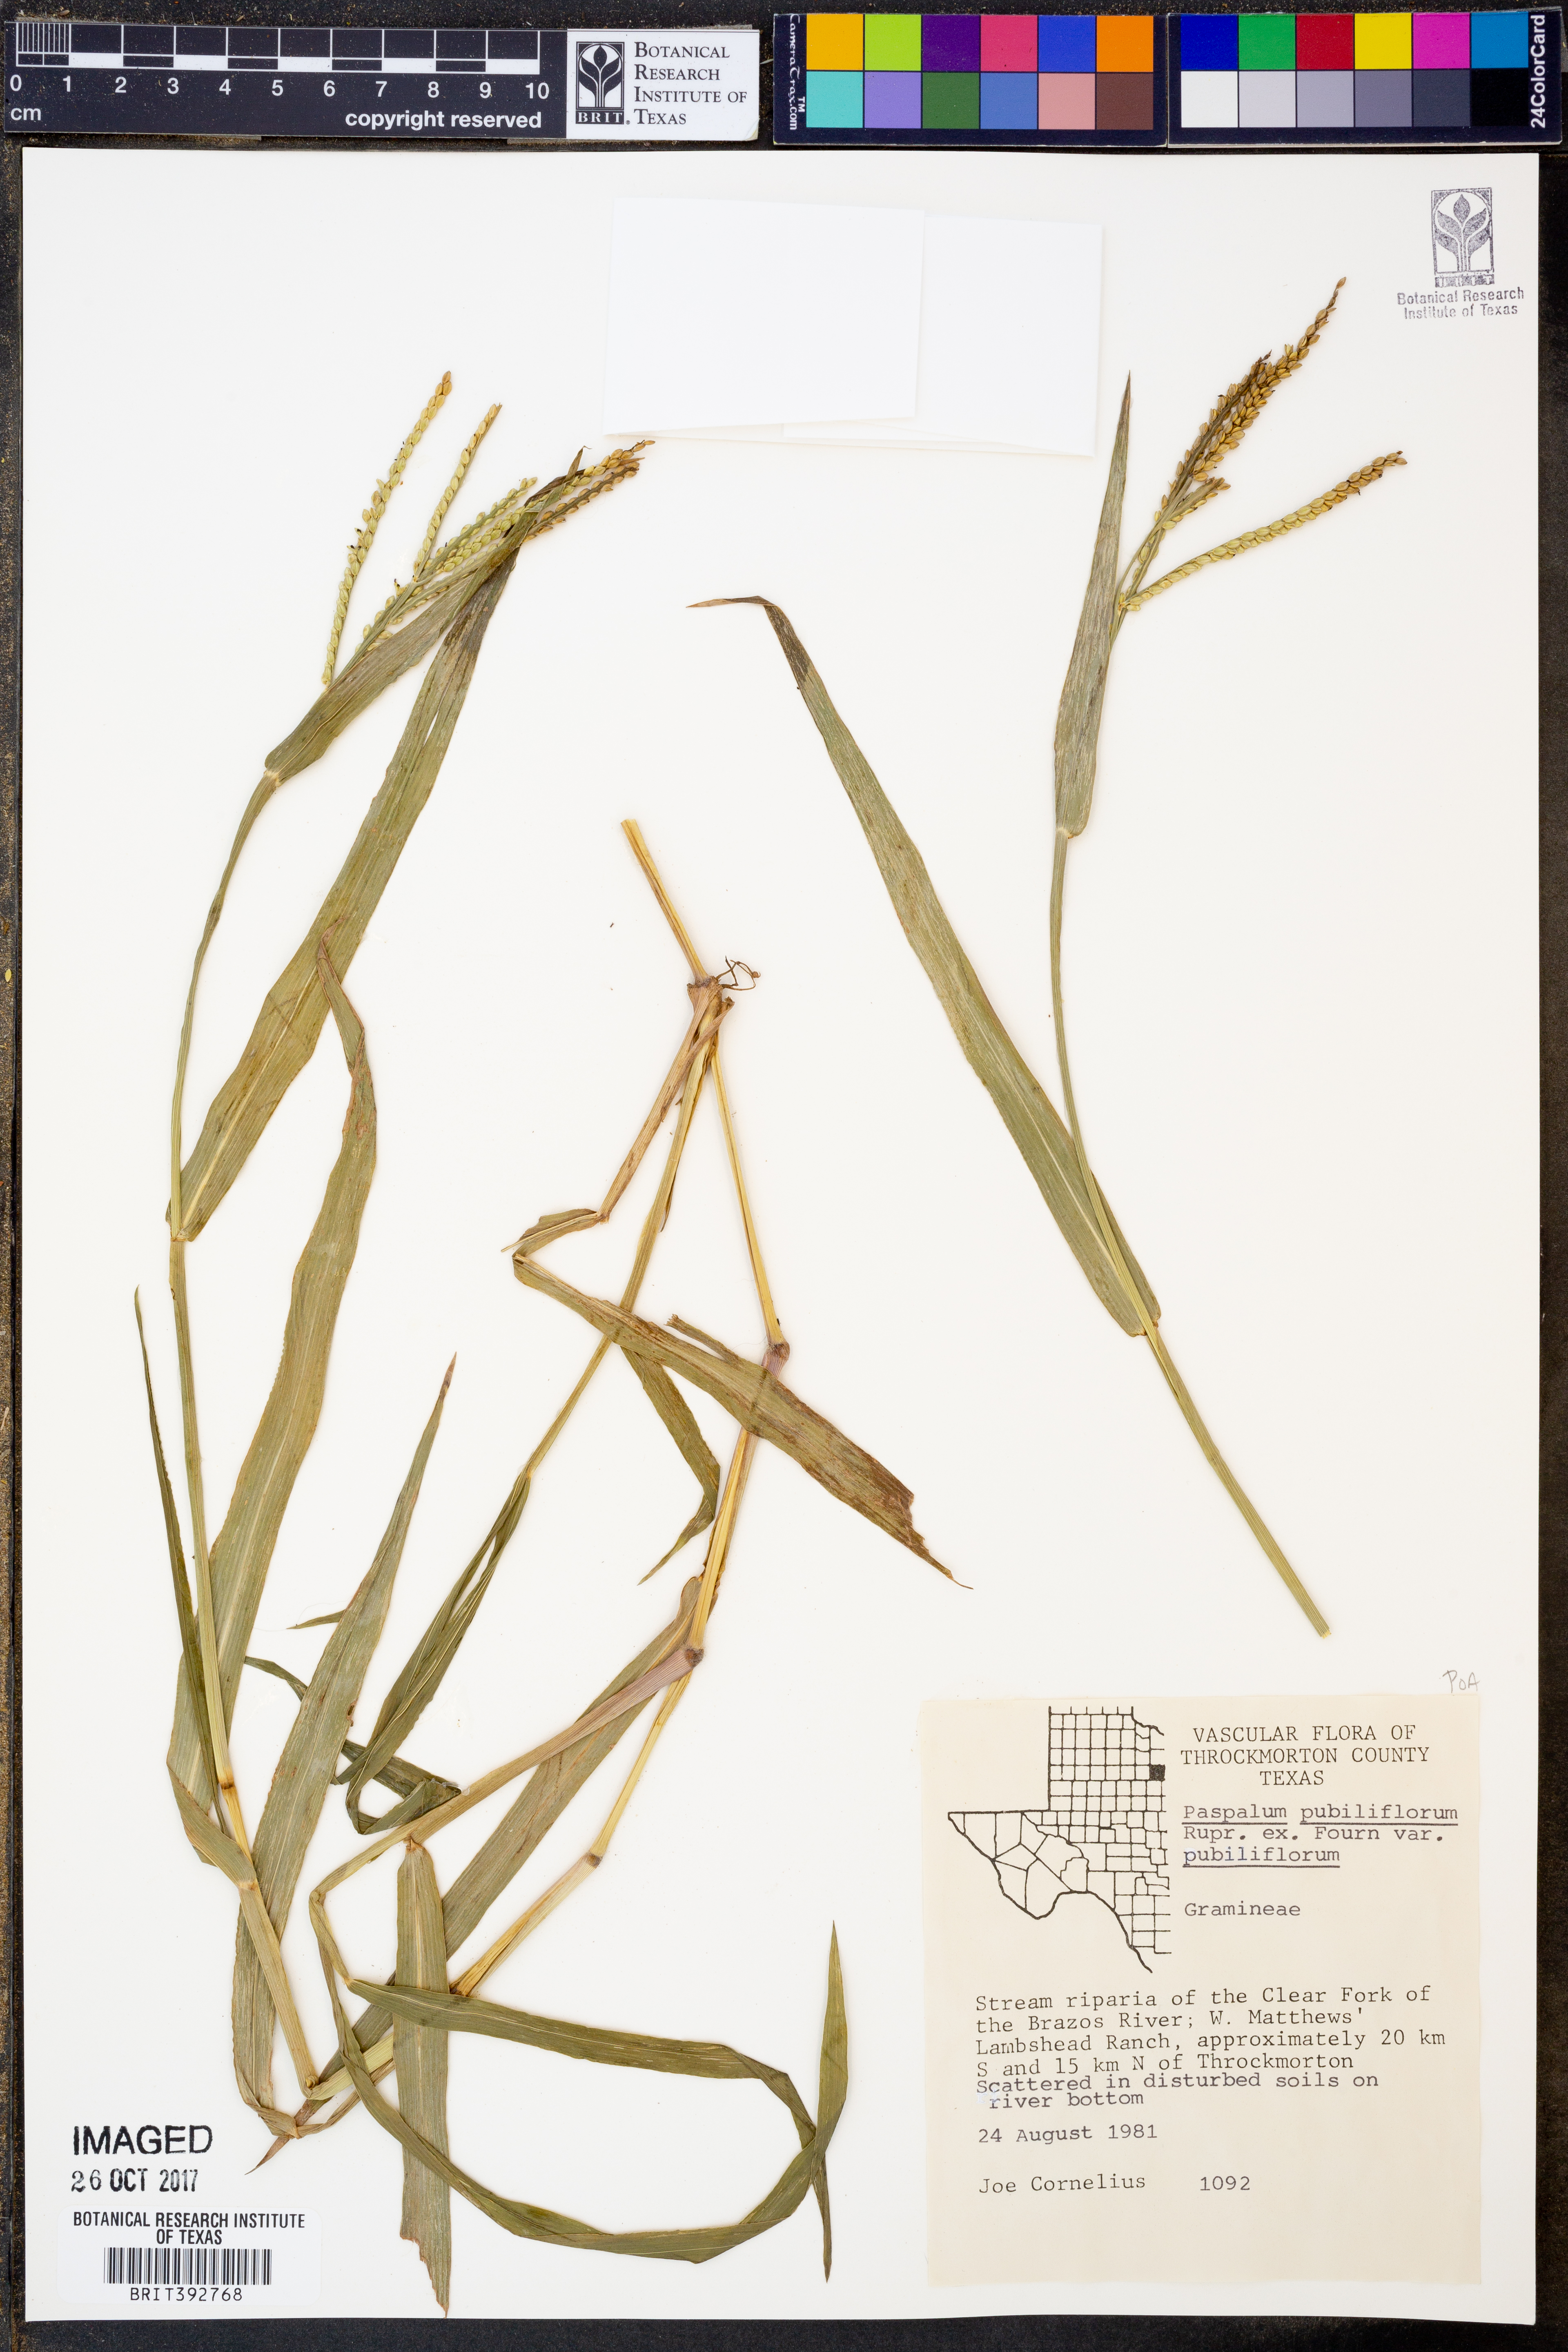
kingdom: Plantae
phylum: Tracheophyta
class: Liliopsida
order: Poales
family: Poaceae
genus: Paspalum
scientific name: Paspalum pubiflorum
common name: Hairy-seed paspalum
